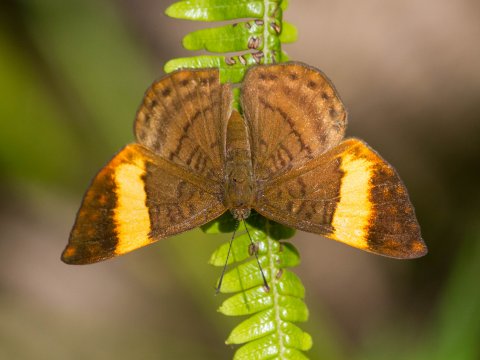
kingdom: Animalia
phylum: Arthropoda
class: Insecta
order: Lepidoptera
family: Lycaenidae
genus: Emesis
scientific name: Emesis
